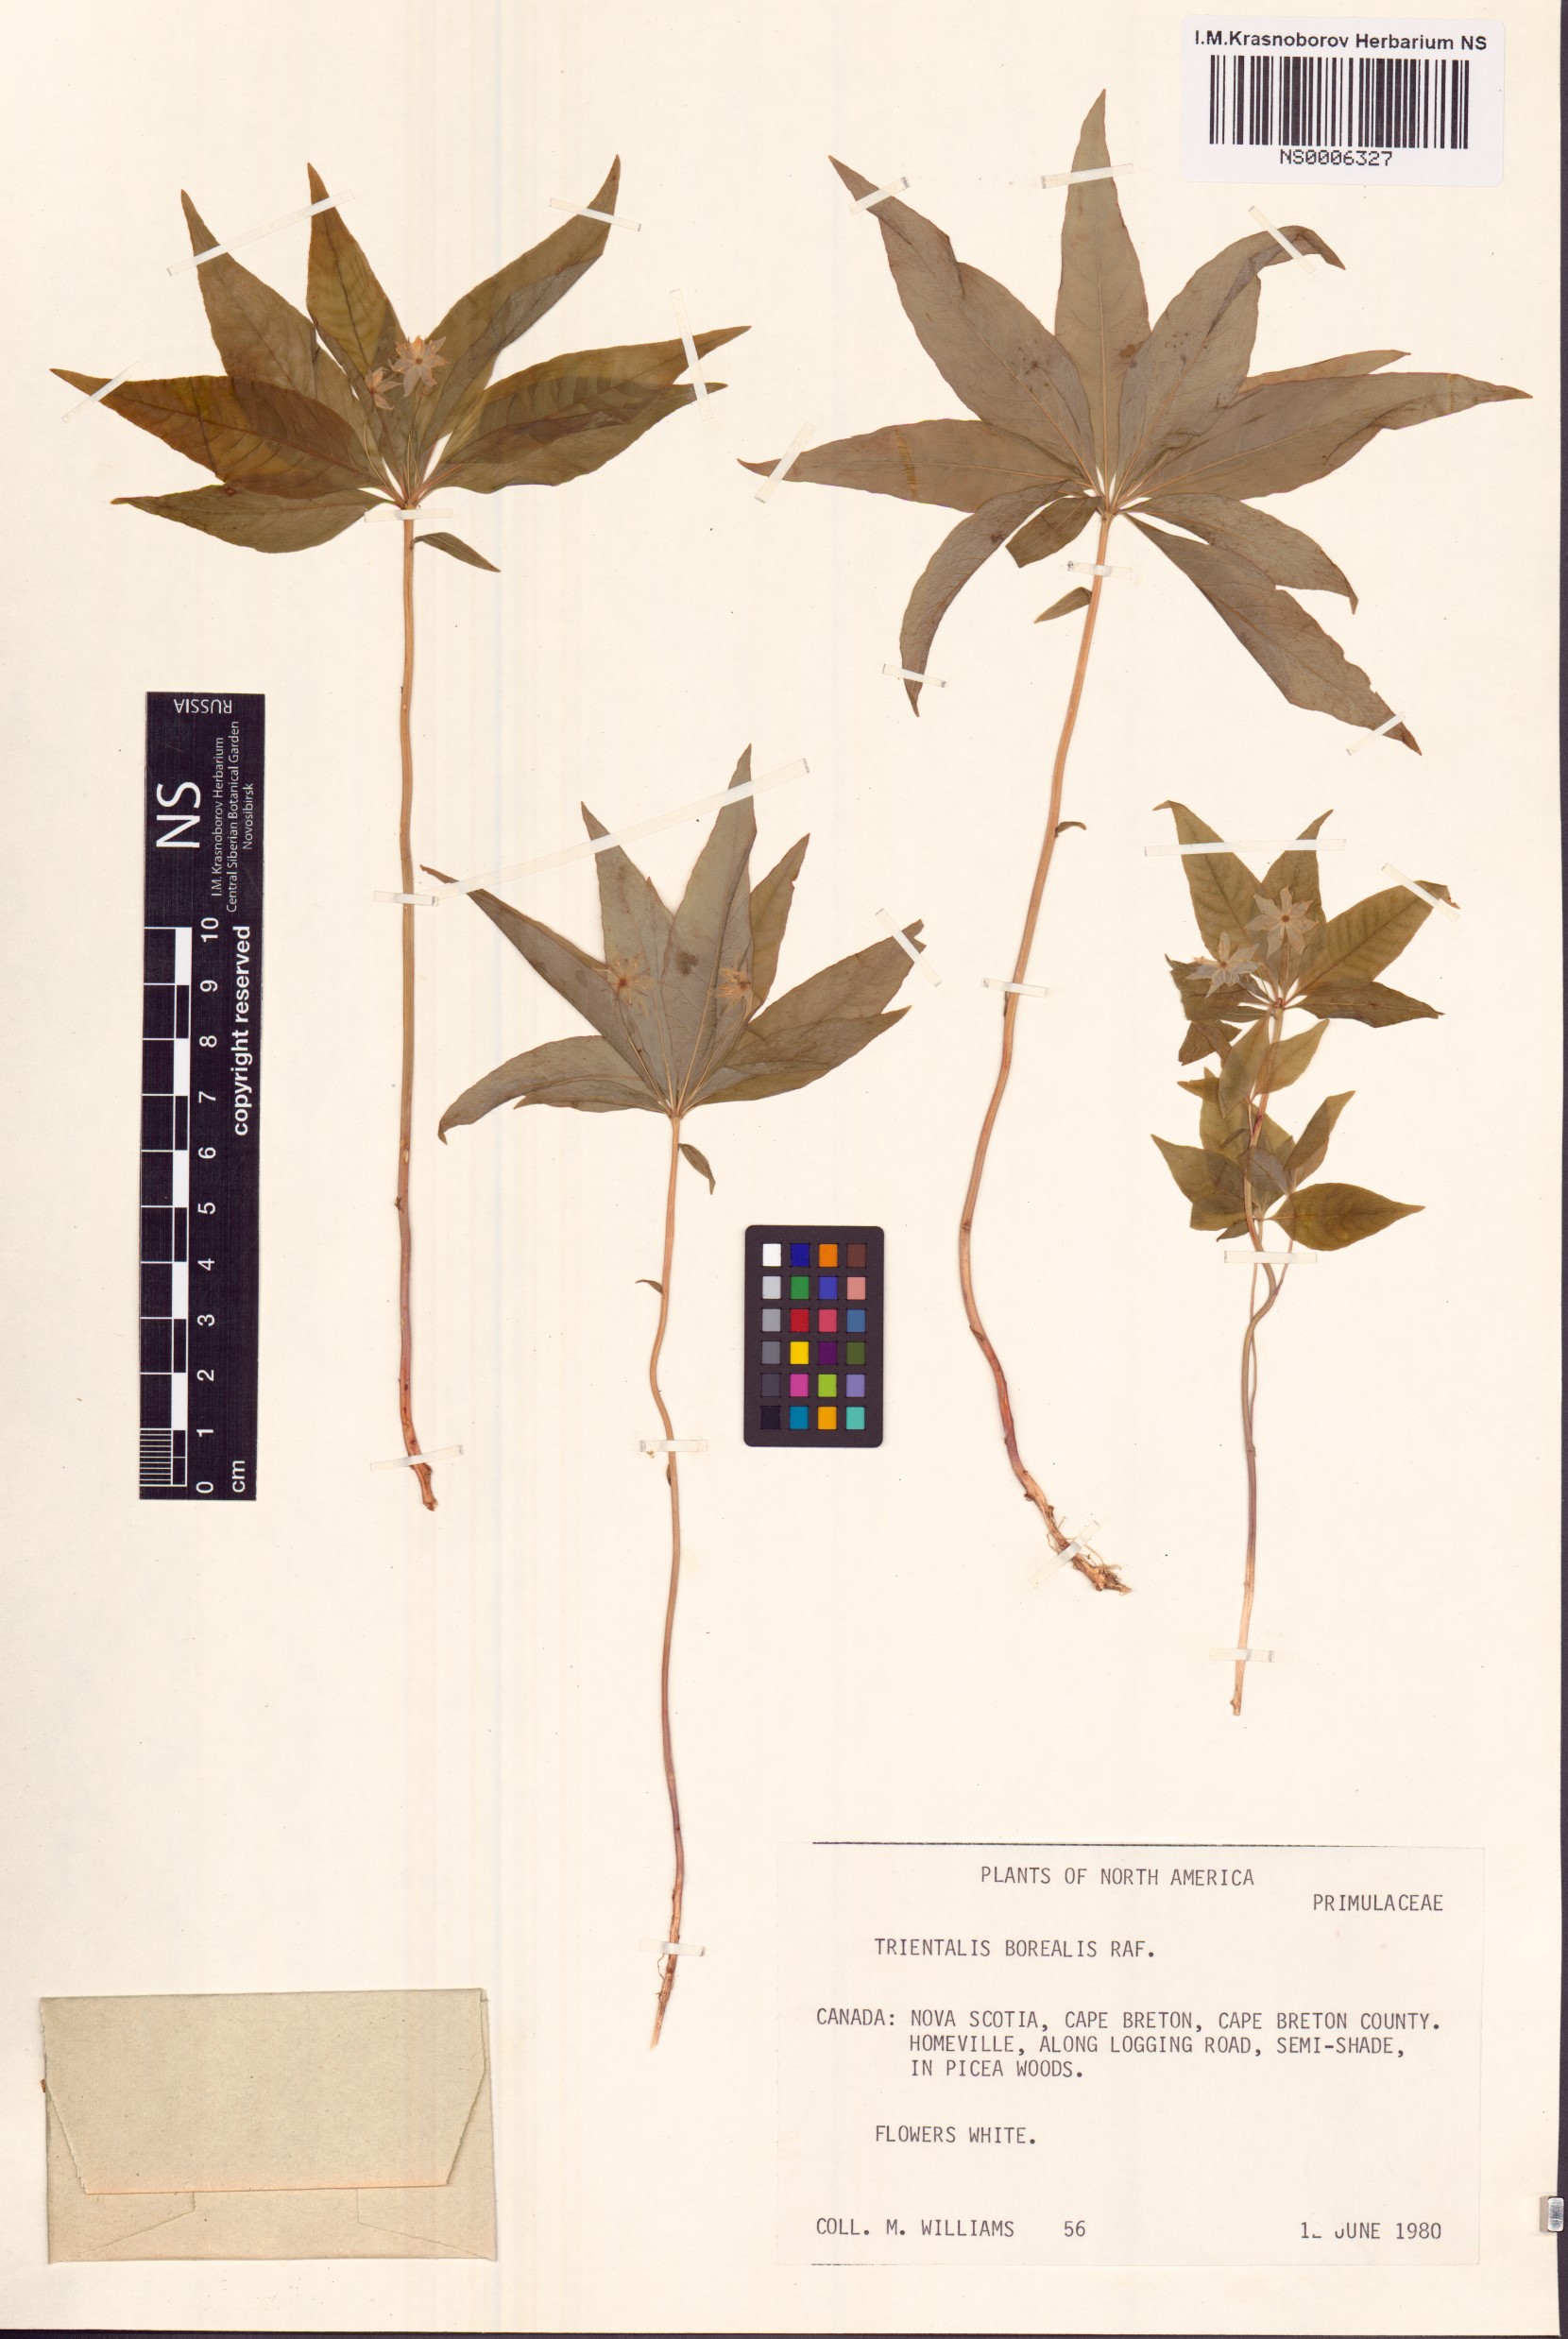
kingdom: Plantae
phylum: Tracheophyta
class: Magnoliopsida
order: Ericales
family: Primulaceae
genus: Lysimachia
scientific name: Lysimachia borealis
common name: American starflower
